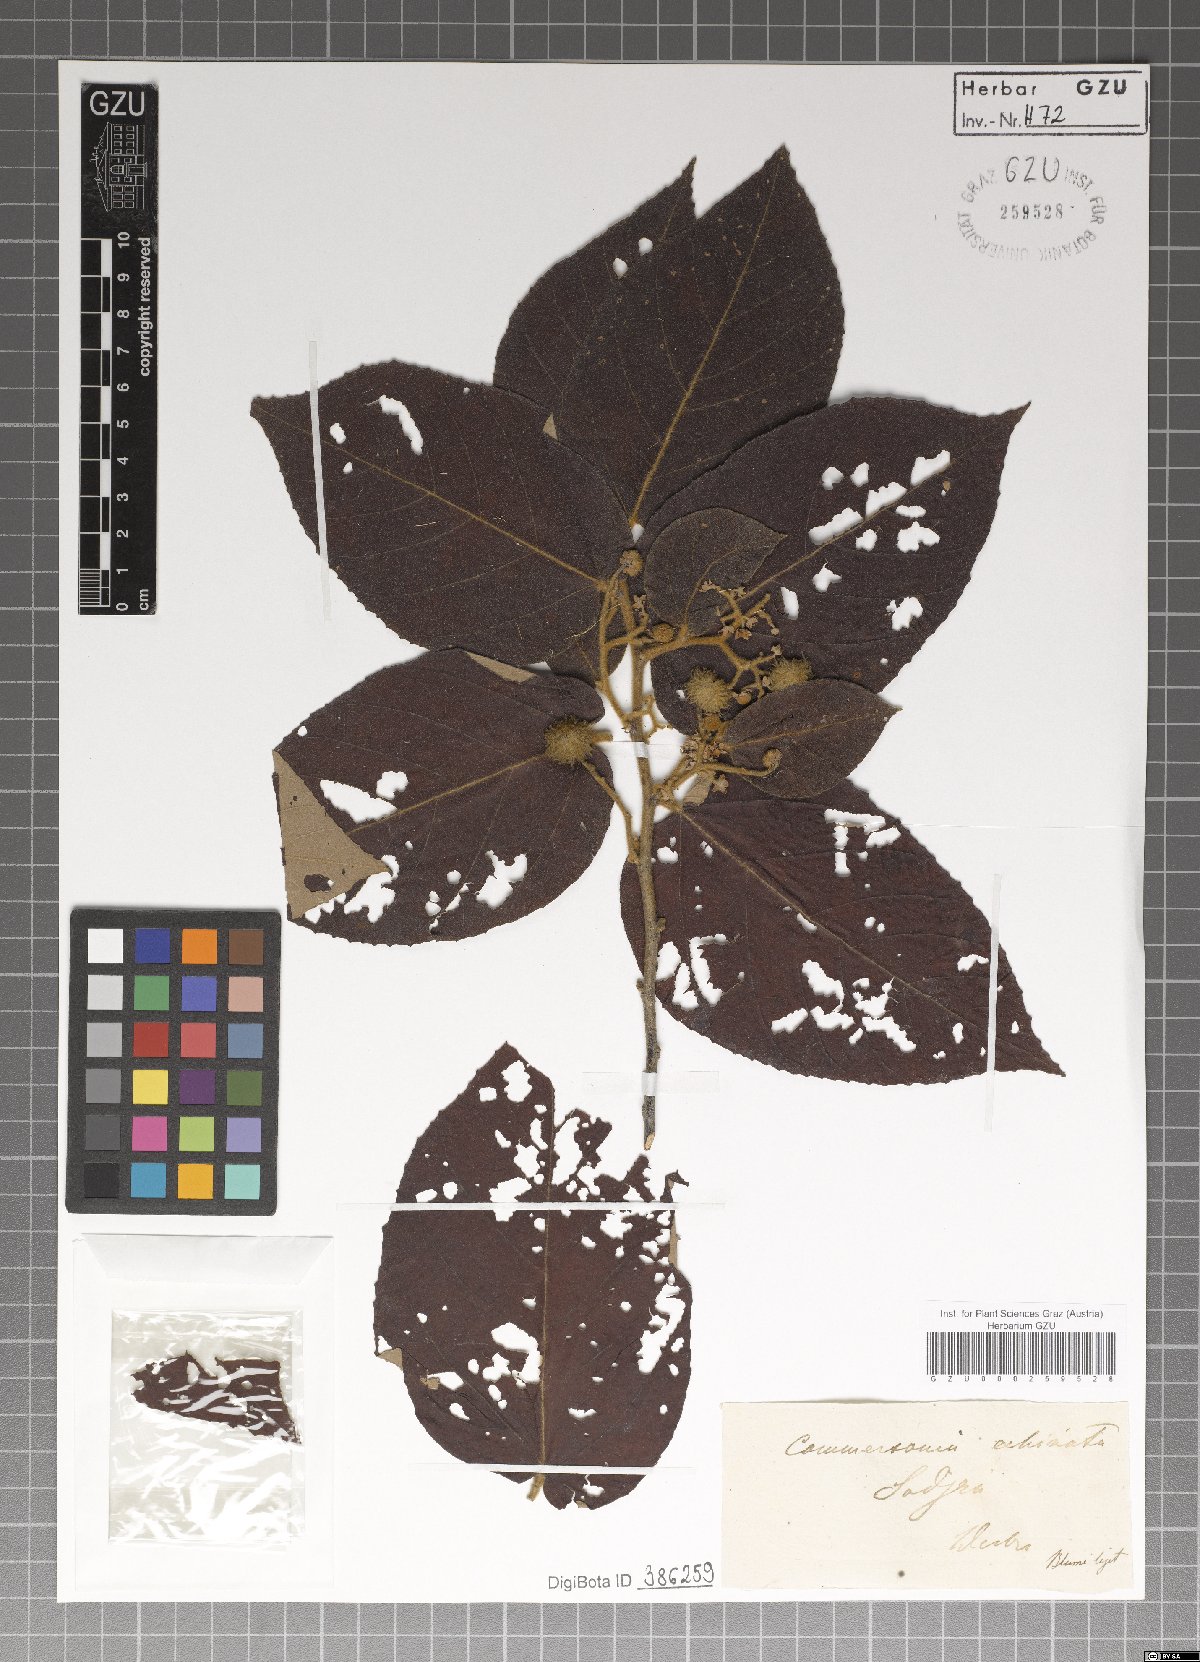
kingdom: Plantae
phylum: Tracheophyta
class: Magnoliopsida
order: Malvales
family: Malvaceae
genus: Commersonia
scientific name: Commersonia
